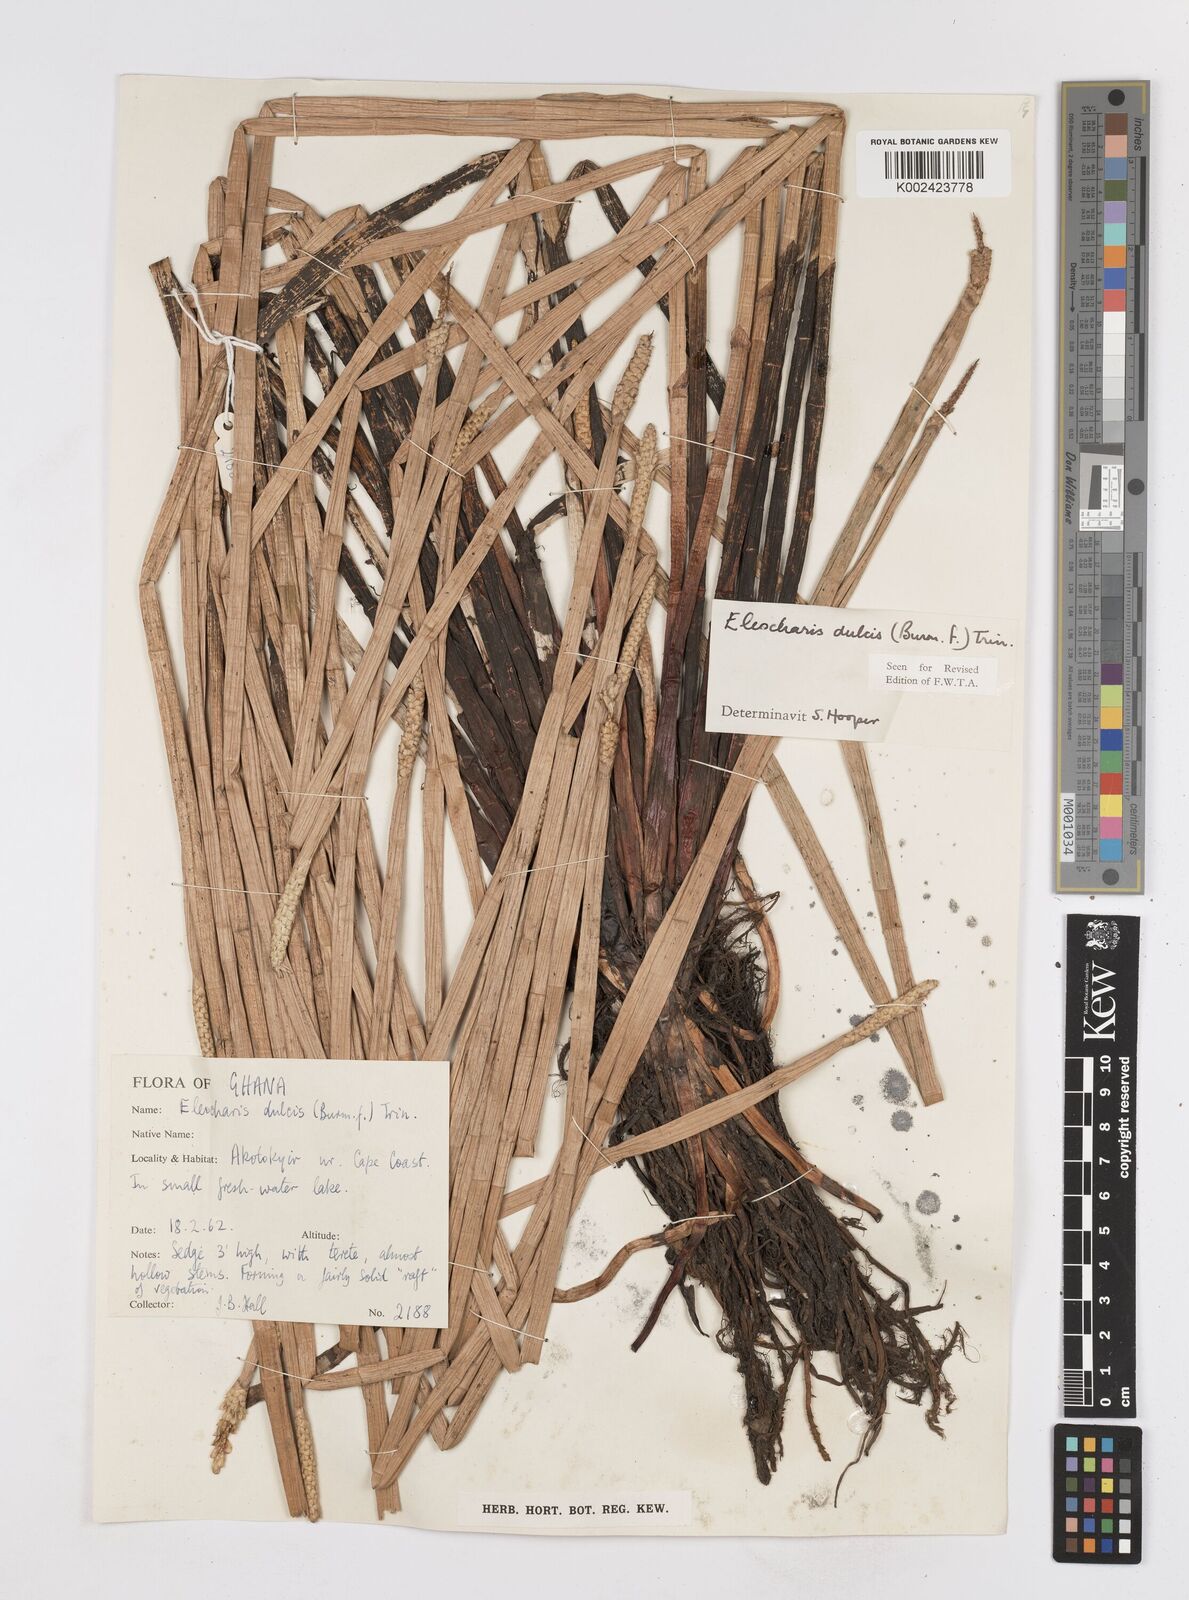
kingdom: Plantae
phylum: Tracheophyta
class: Liliopsida
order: Poales
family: Cyperaceae
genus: Eleocharis
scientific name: Eleocharis dulcis
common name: Chinese water chestnut
